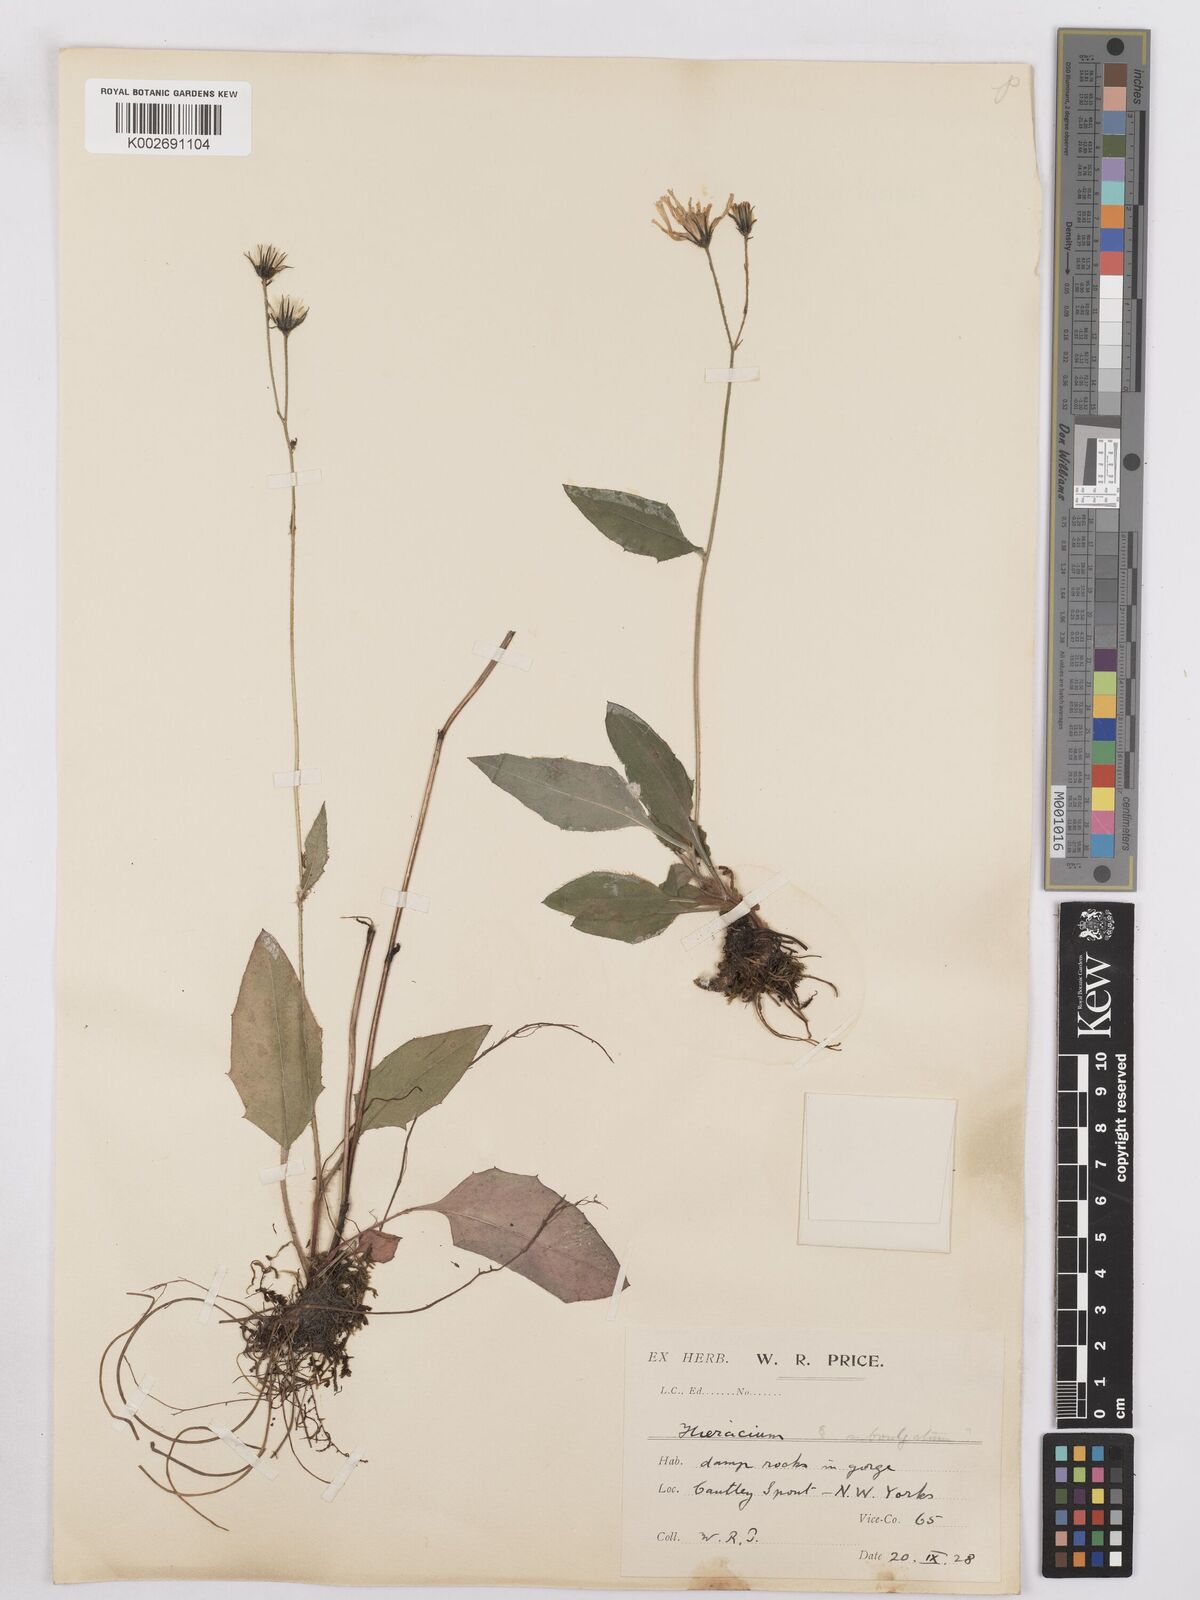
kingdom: Plantae
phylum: Tracheophyta
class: Magnoliopsida
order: Asterales
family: Asteraceae
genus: Hieracium
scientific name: Hieracium lachenalii
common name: Common hawkweed
